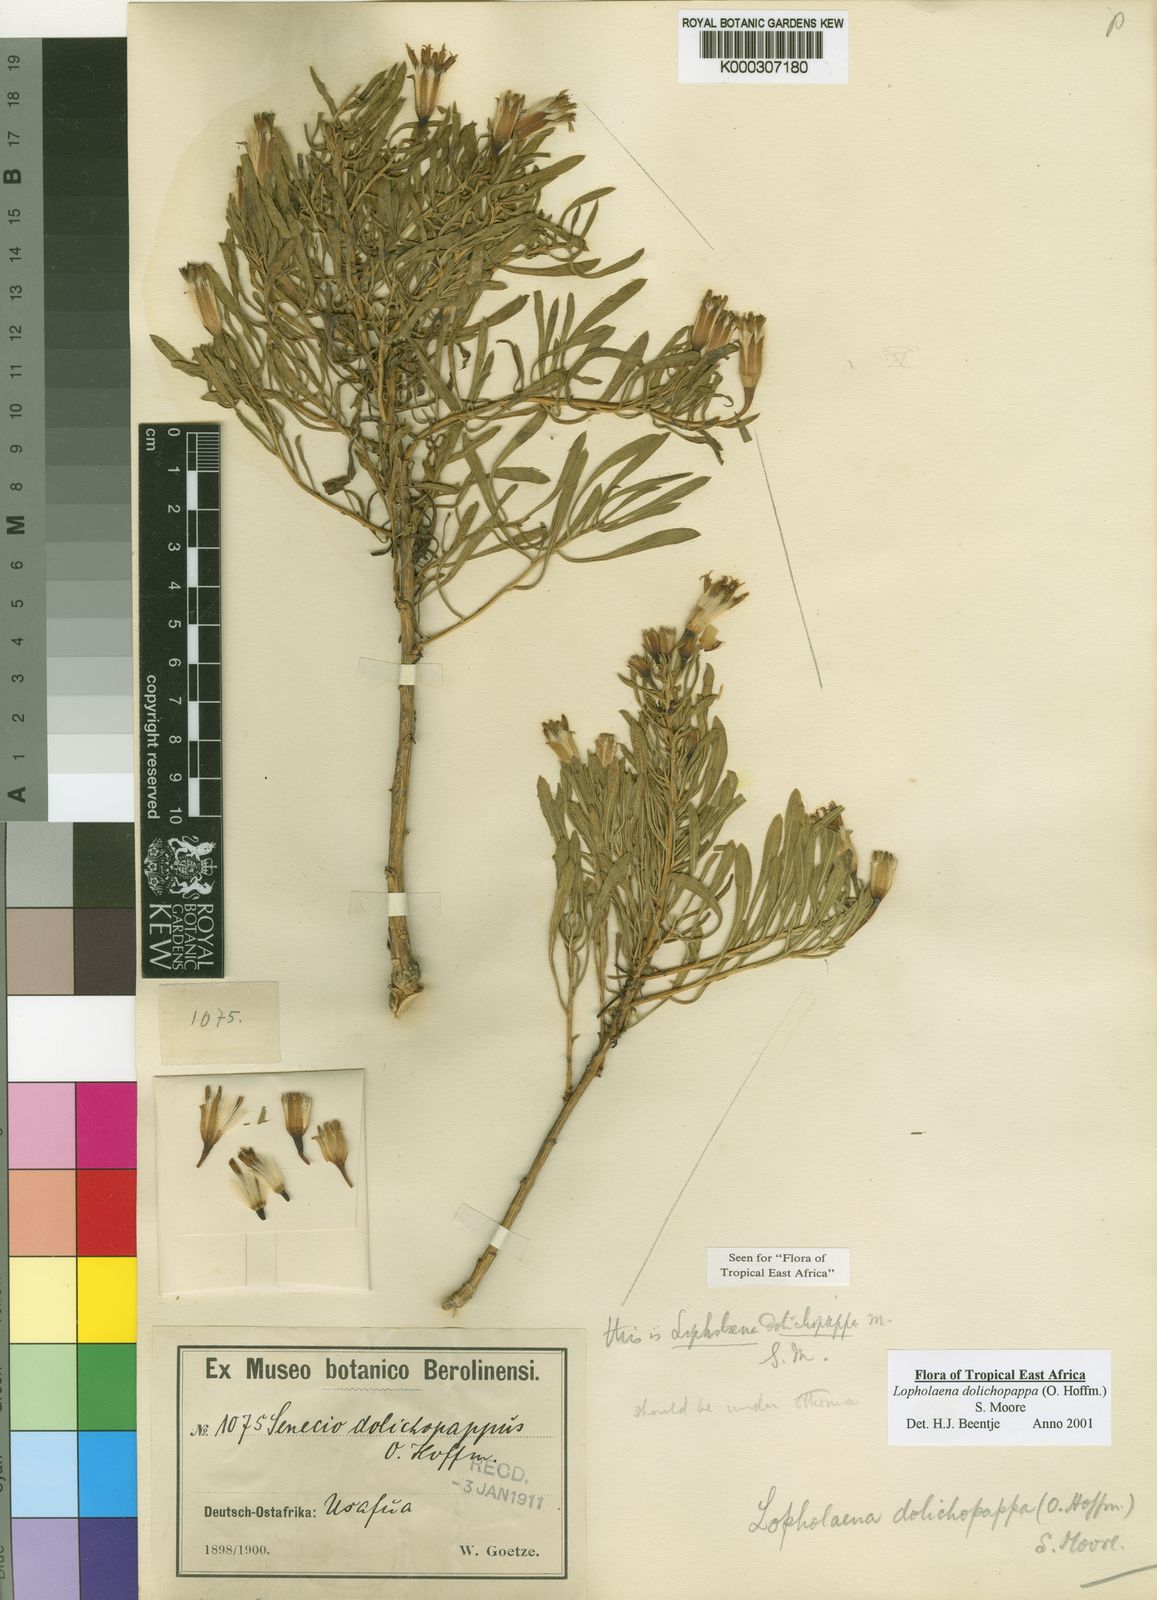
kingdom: Plantae
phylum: Tracheophyta
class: Magnoliopsida
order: Asterales
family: Asteraceae
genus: Lopholaena
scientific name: Lopholaena dolichopappa
